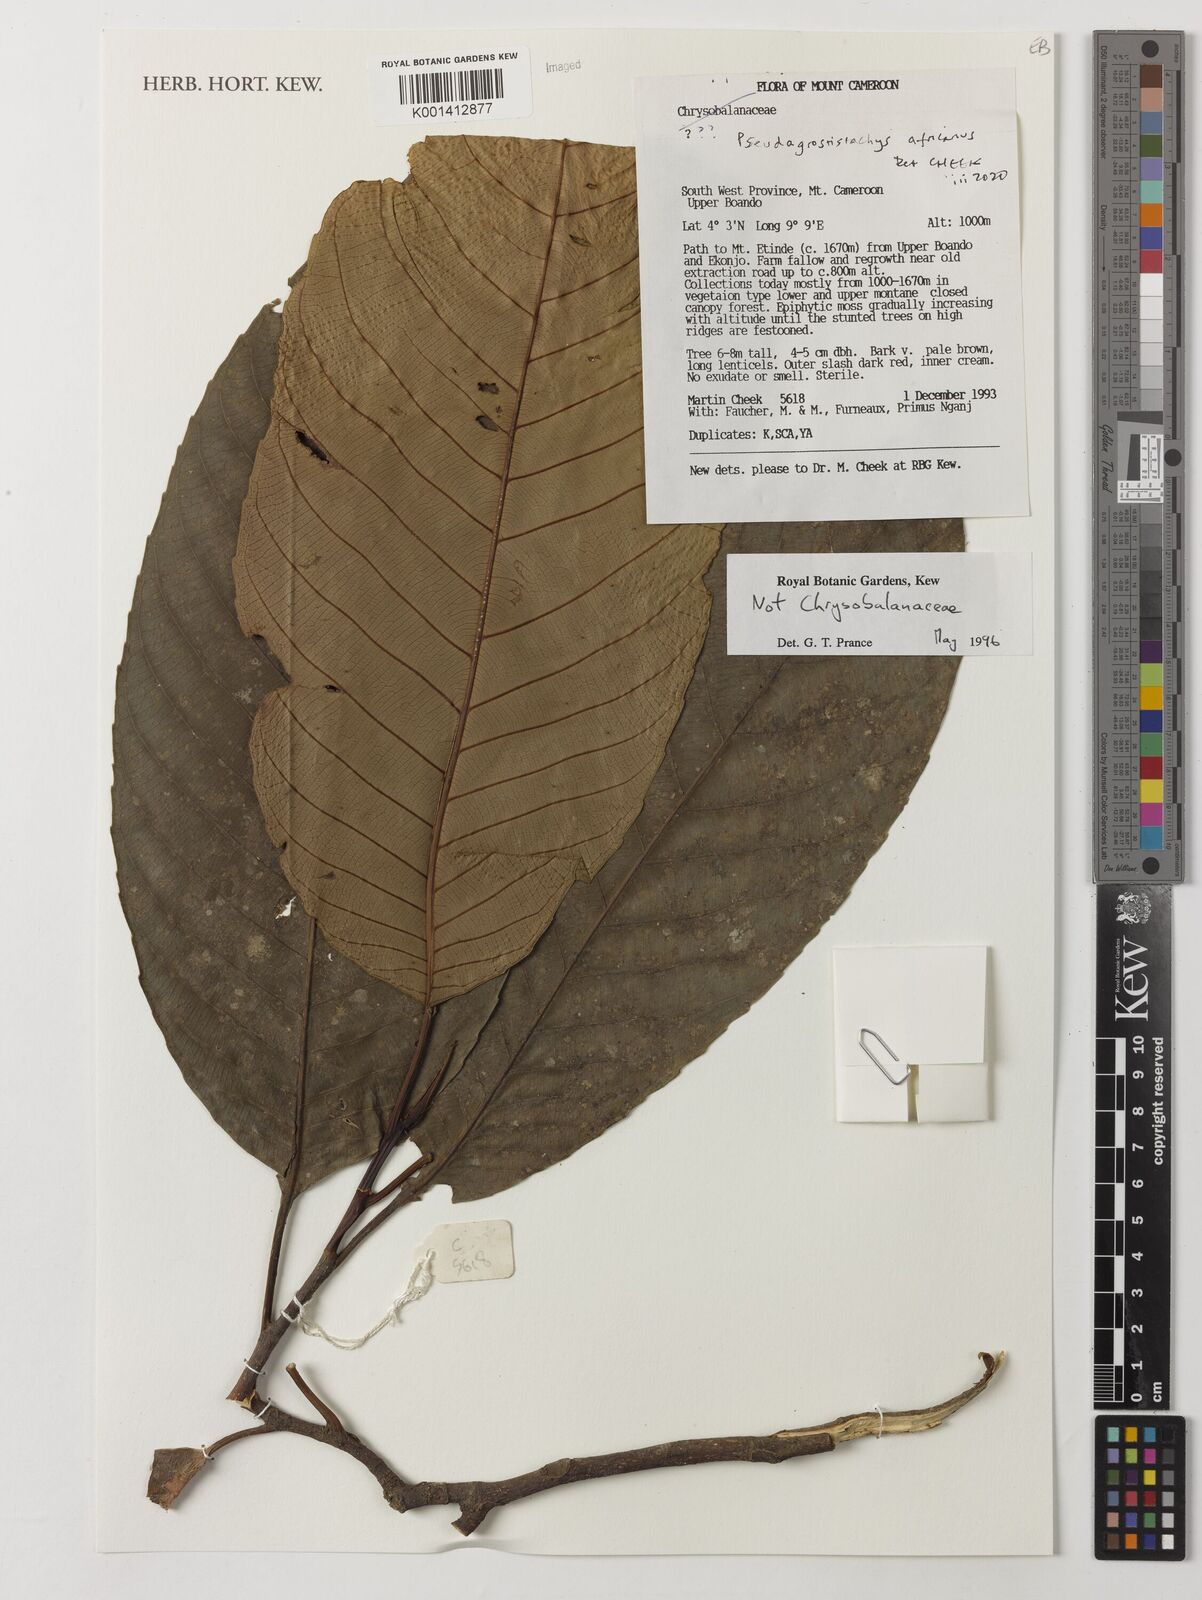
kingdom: Plantae
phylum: Tracheophyta
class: Magnoliopsida
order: Malpighiales
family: Euphorbiaceae
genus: Pseudagrostistachys
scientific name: Pseudagrostistachys africana
